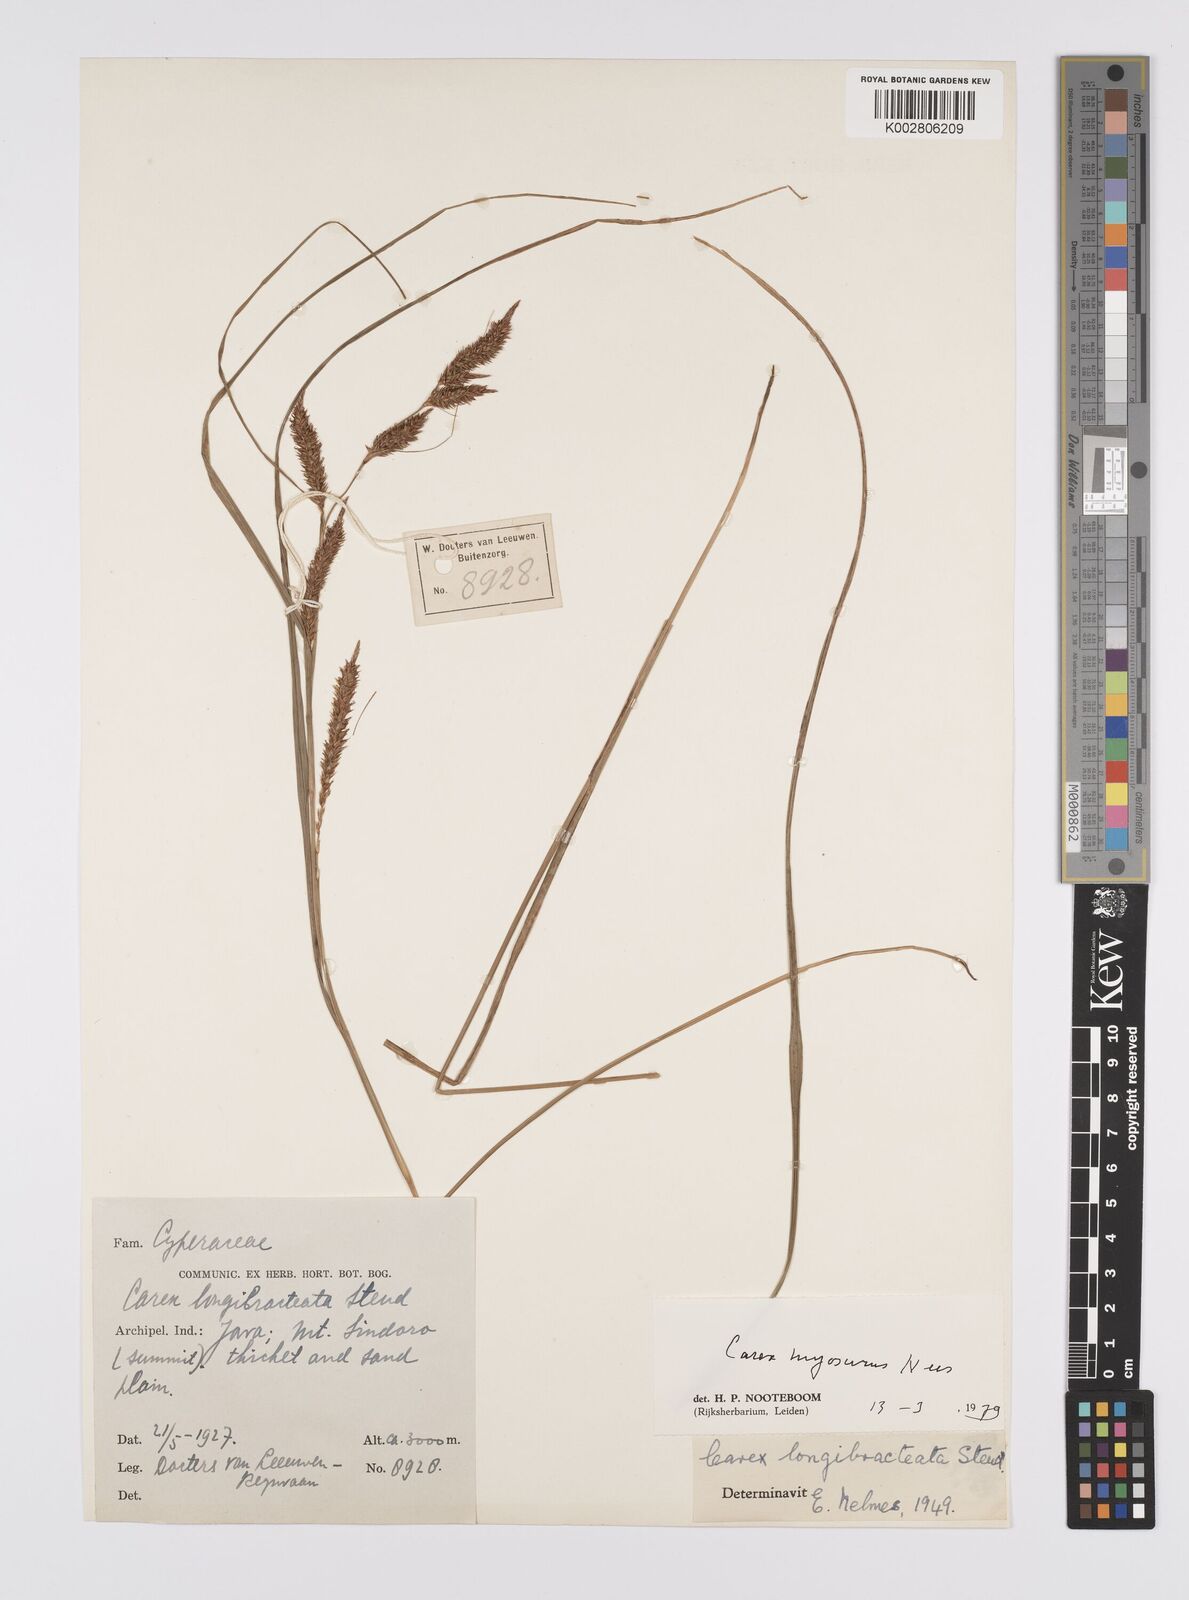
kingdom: Plantae
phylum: Tracheophyta
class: Liliopsida
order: Poales
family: Cyperaceae
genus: Carex
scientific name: Carex myosurus
